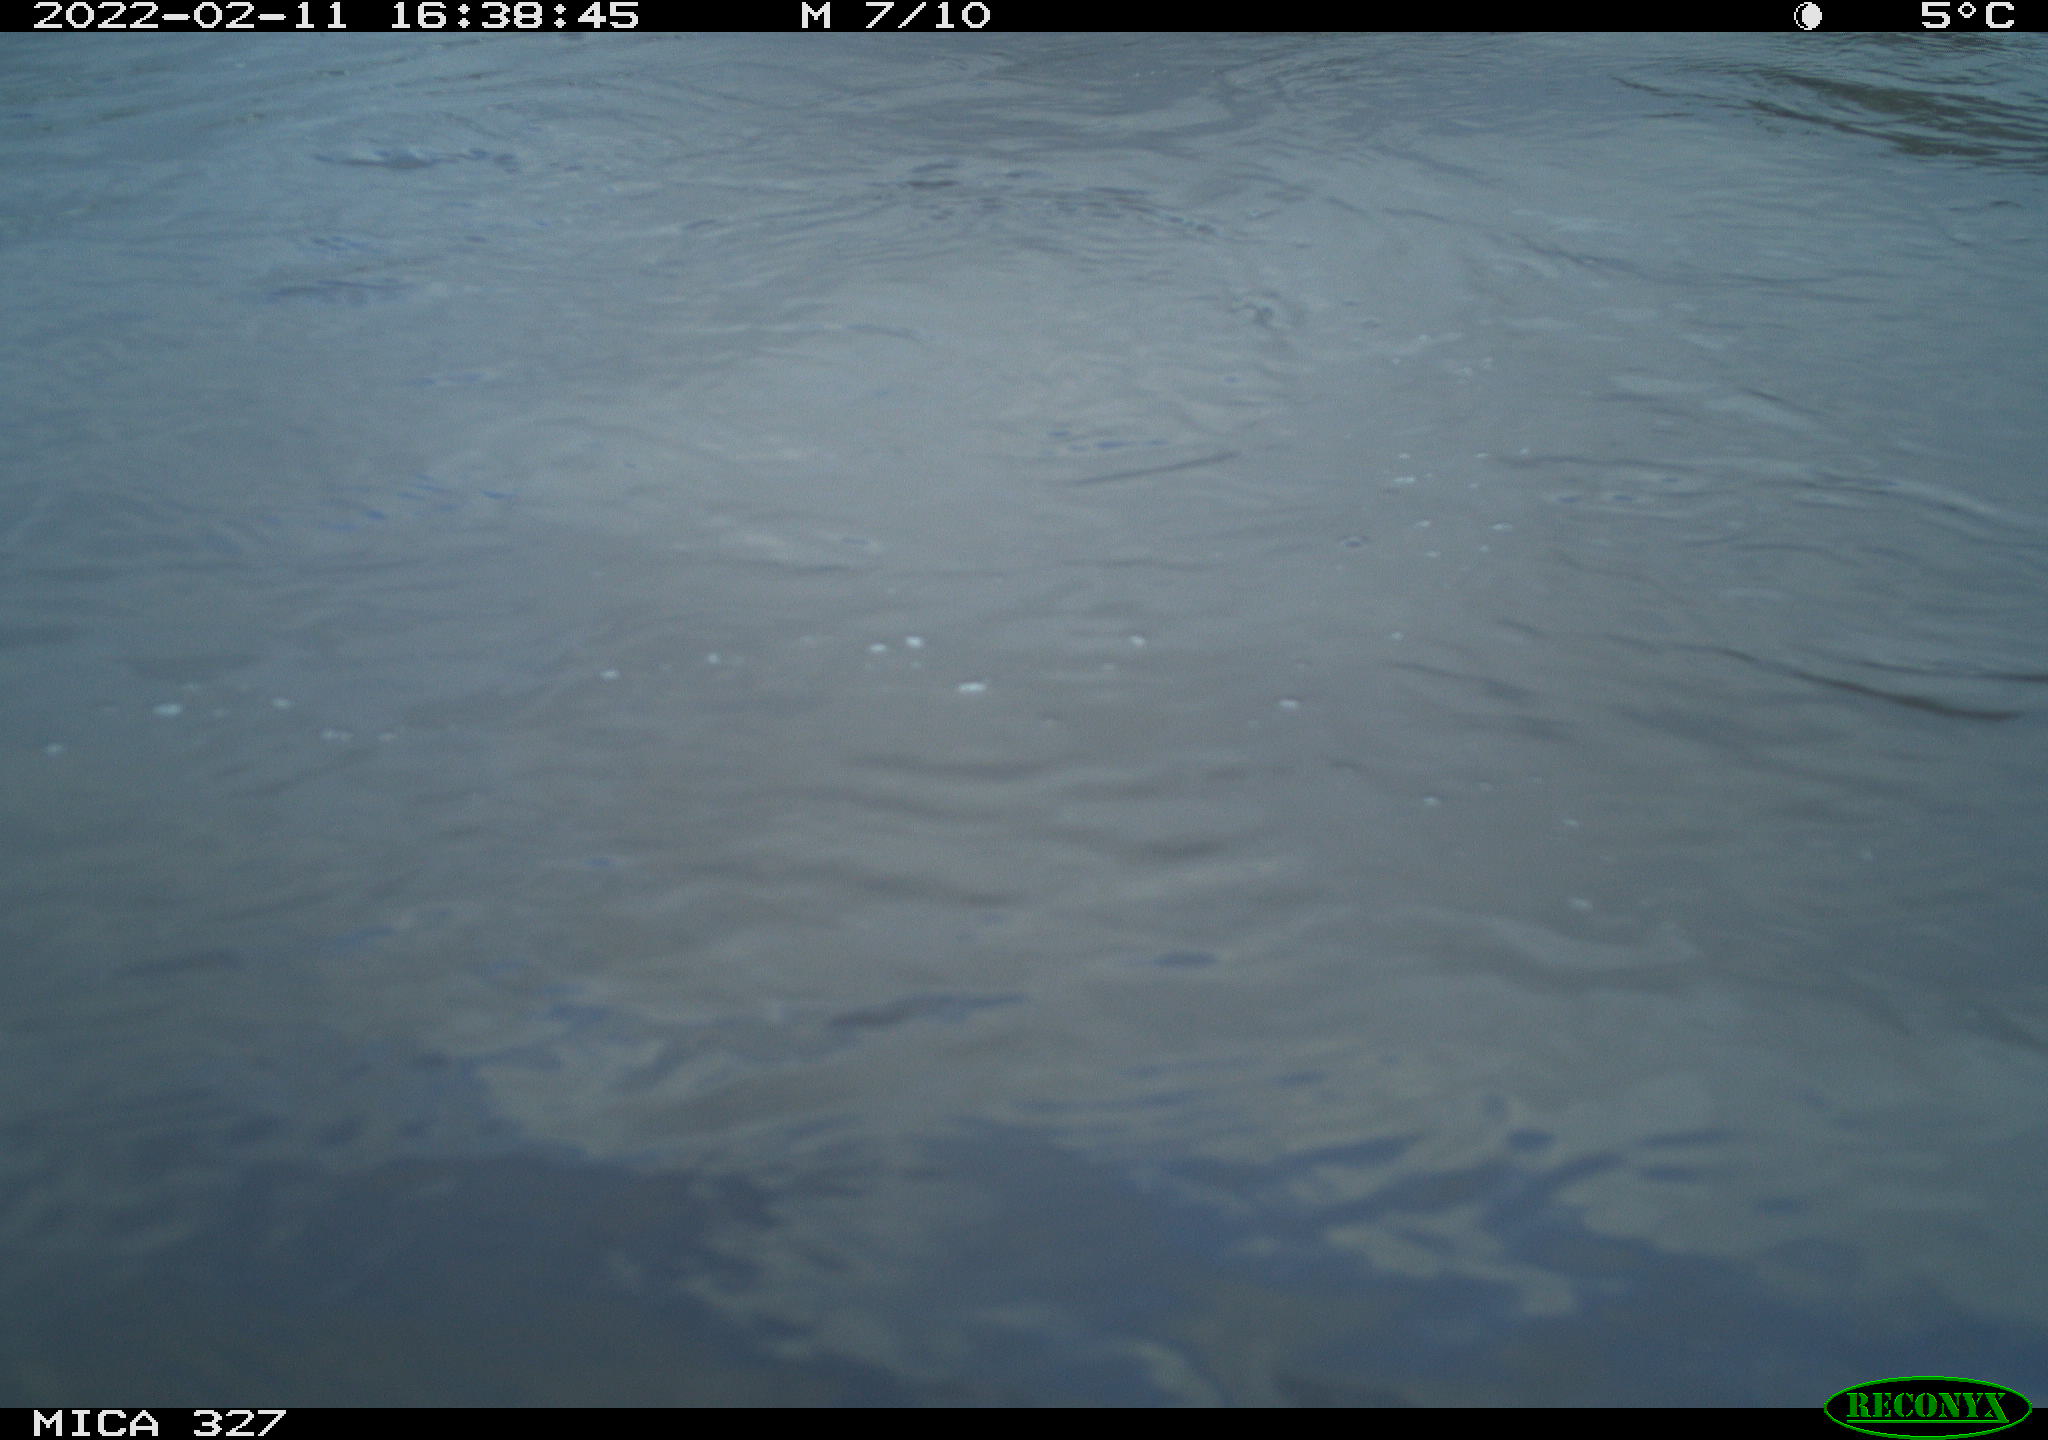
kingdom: Animalia
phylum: Chordata
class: Mammalia
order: Carnivora
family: Canidae
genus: Canis
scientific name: Canis lupus
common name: Gray wolf
